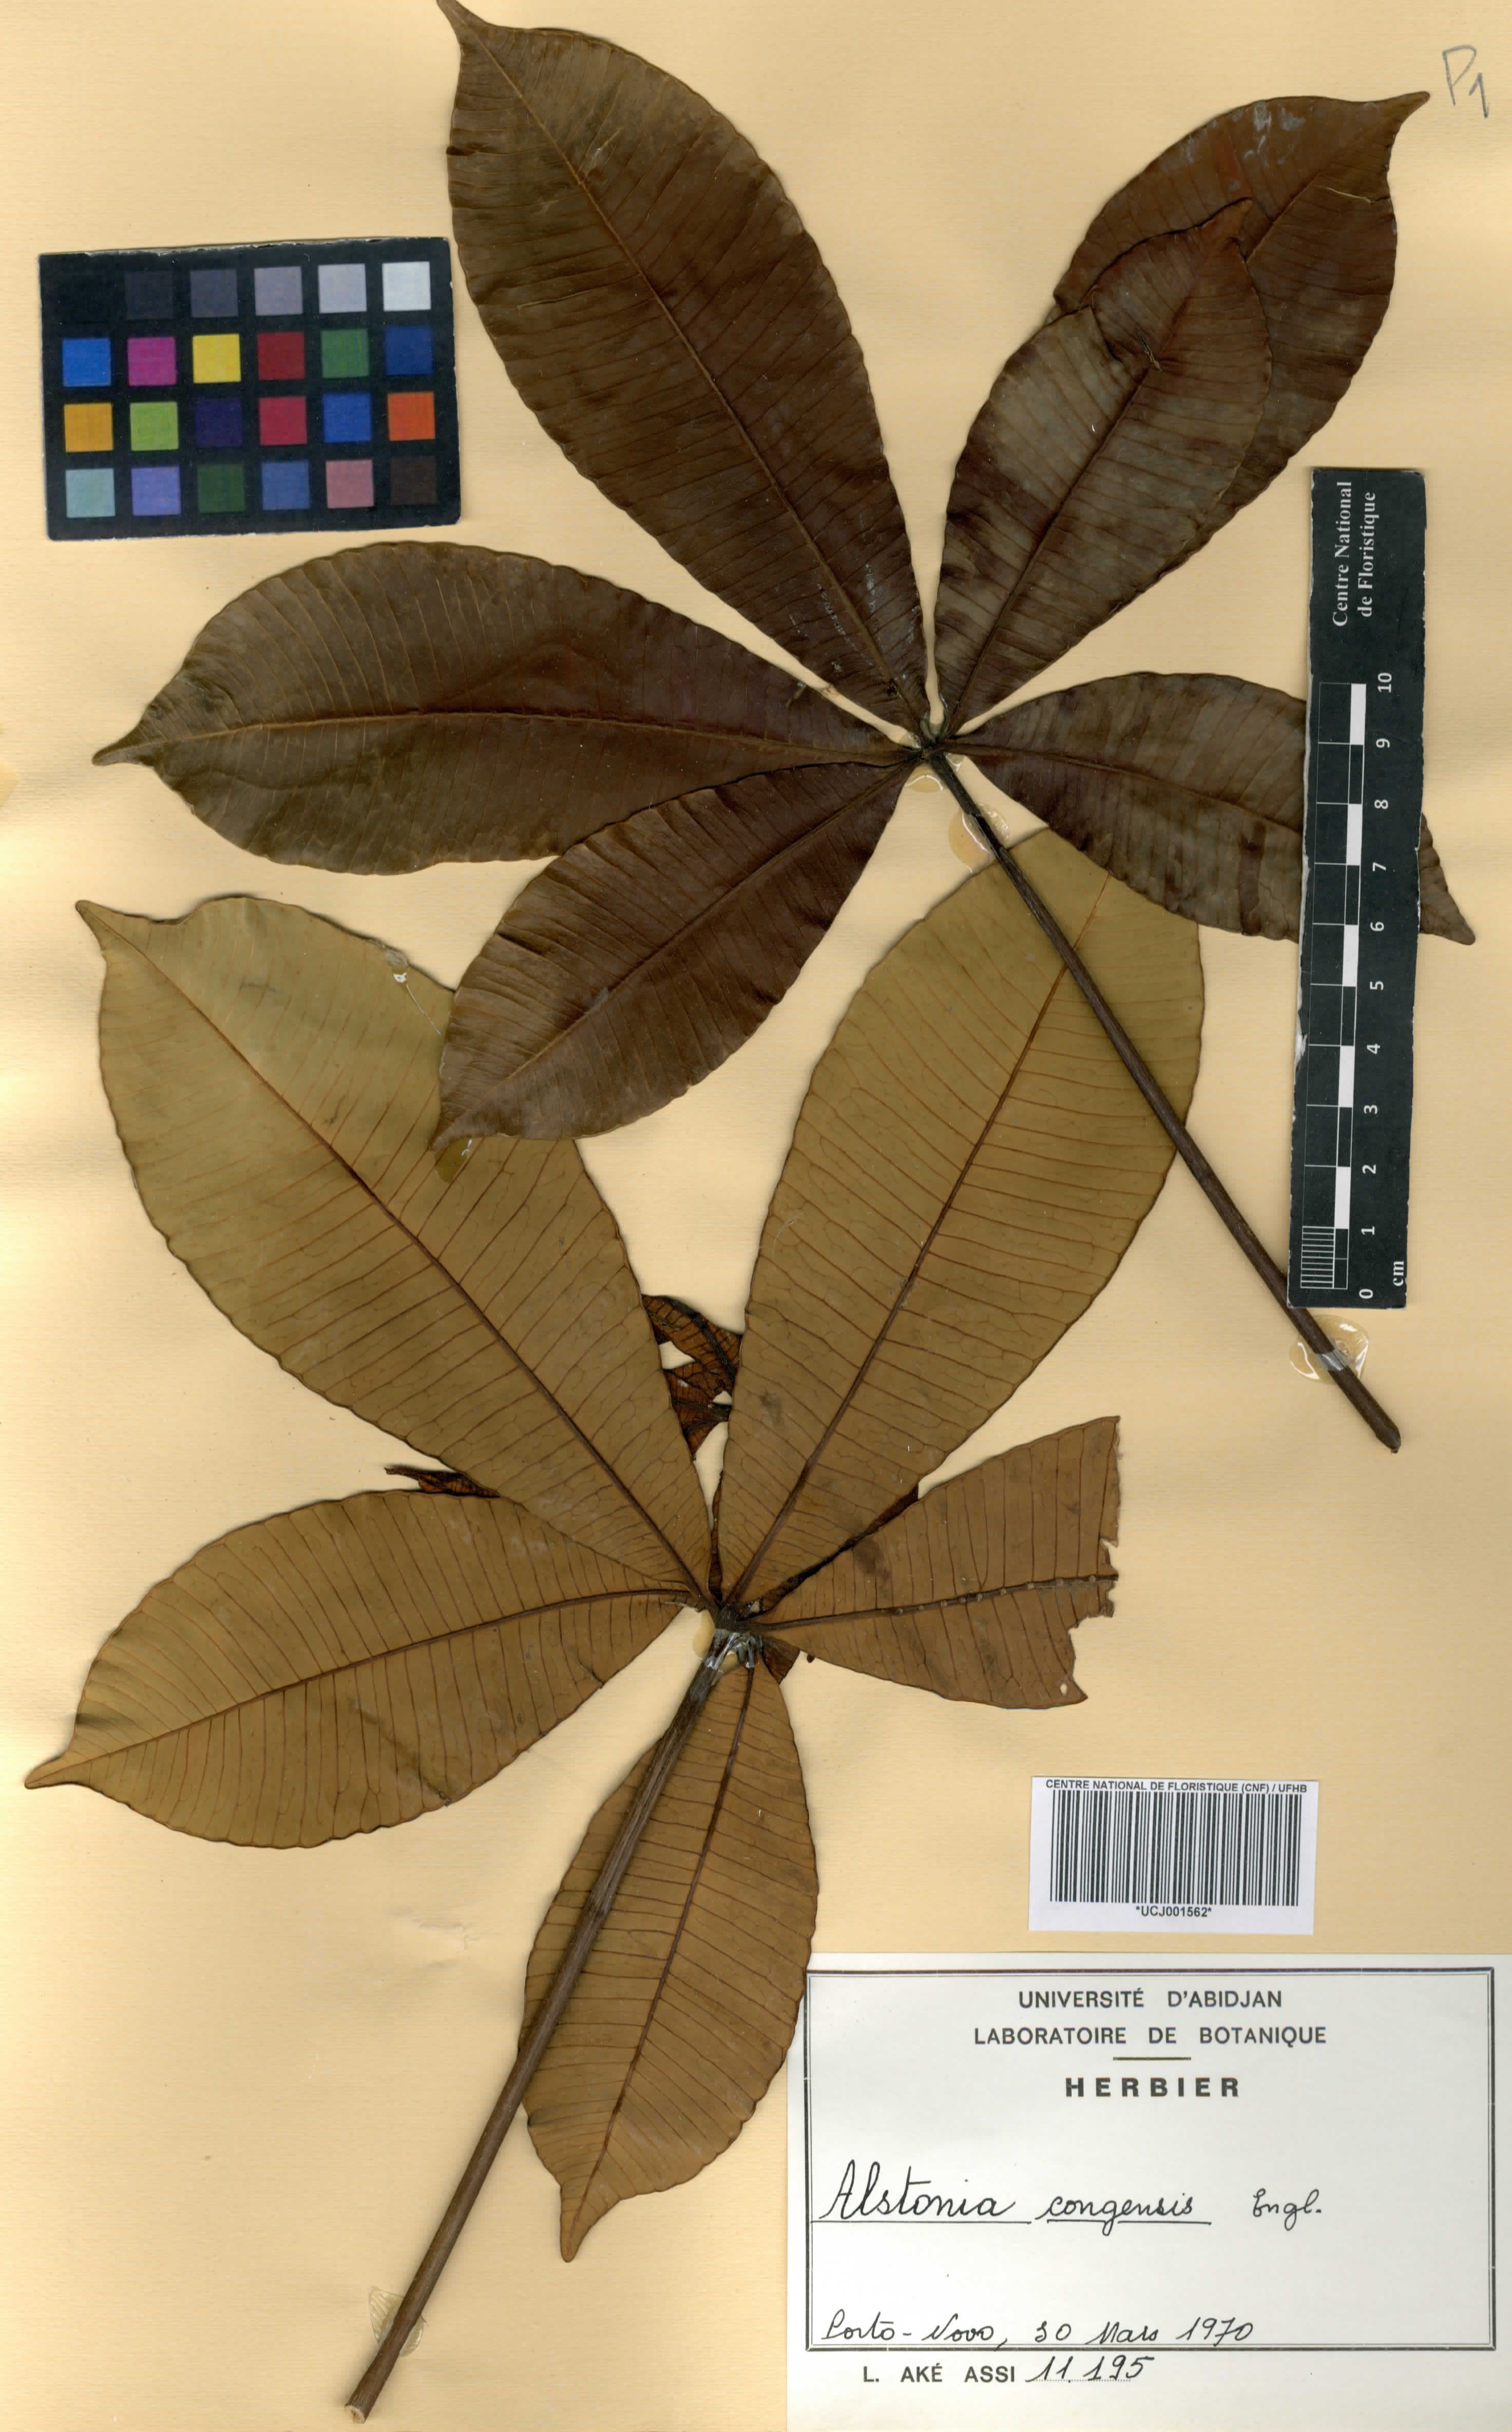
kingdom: Plantae
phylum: Tracheophyta
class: Magnoliopsida
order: Gentianales
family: Apocynaceae
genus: Alstonia
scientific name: Alstonia congensis
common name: Alstonia
